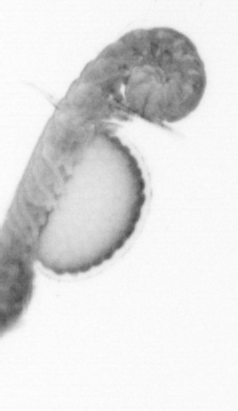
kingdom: Animalia
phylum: Annelida
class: Polychaeta
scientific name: Polychaeta
